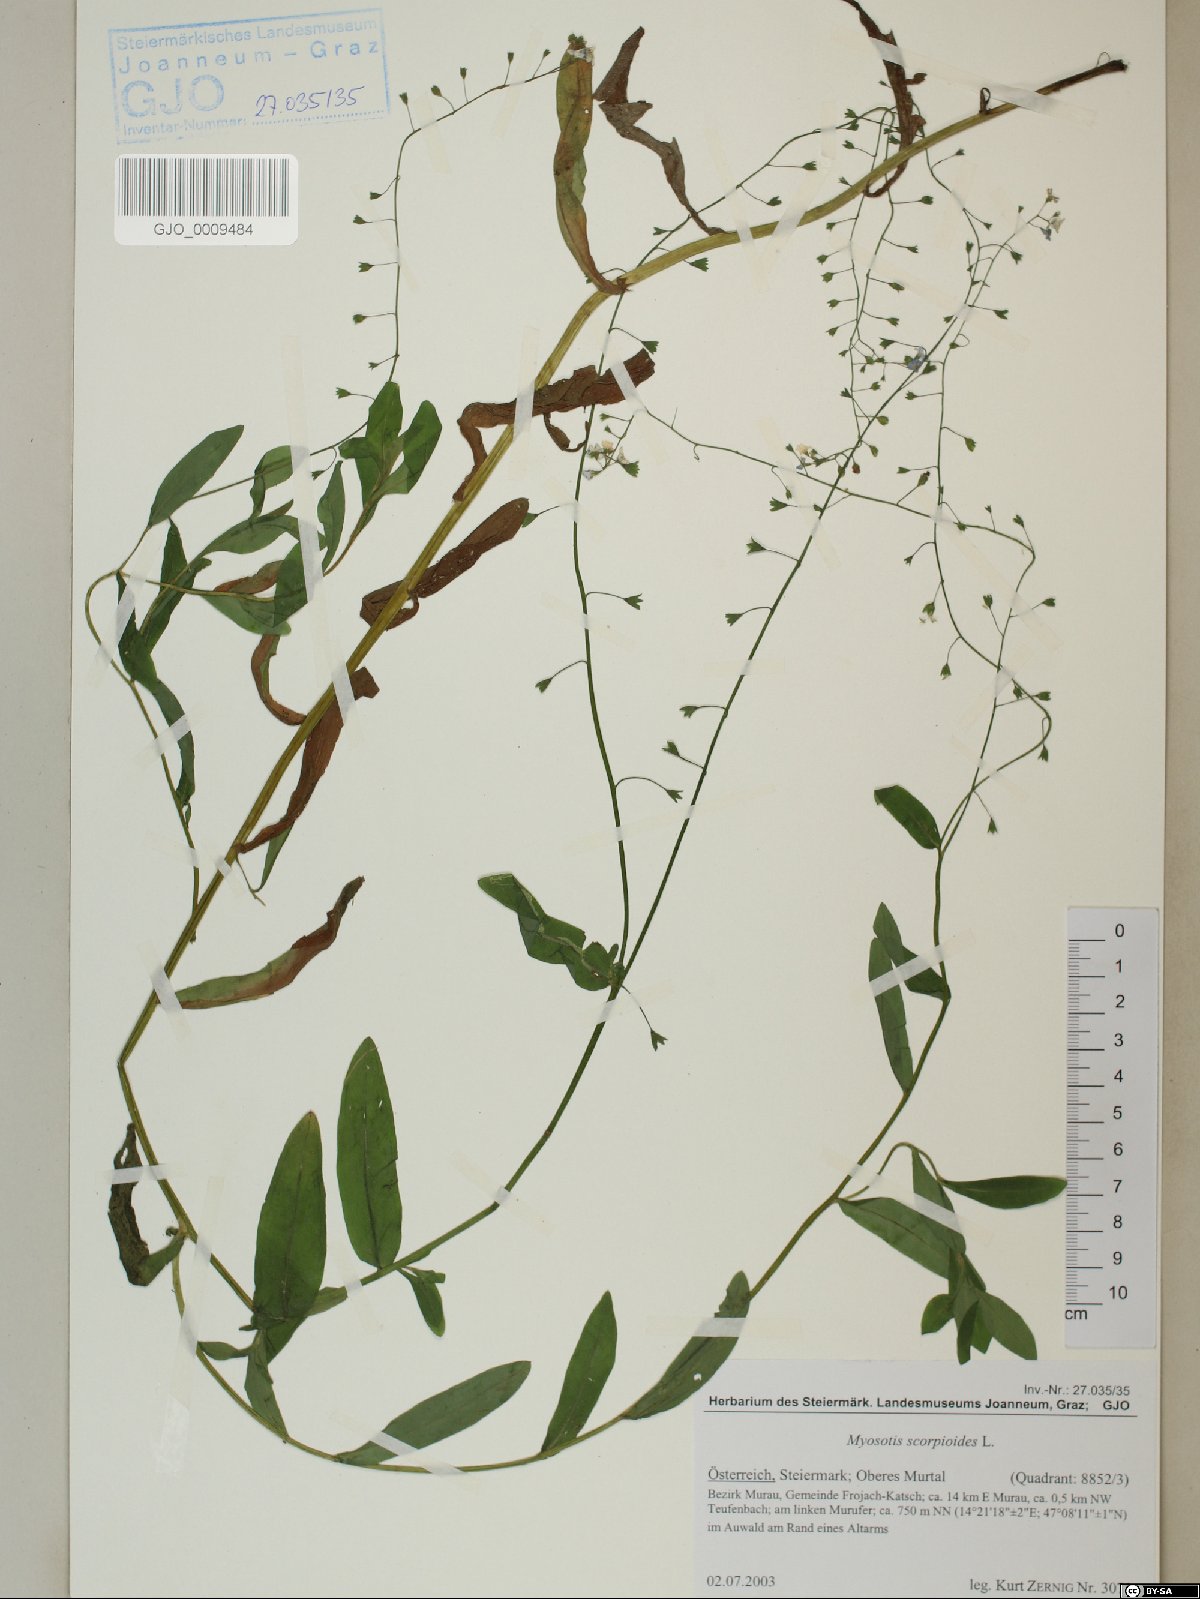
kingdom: Plantae
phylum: Tracheophyta
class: Magnoliopsida
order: Boraginales
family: Boraginaceae
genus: Myosotis
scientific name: Myosotis scorpioides
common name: Water forget-me-not
